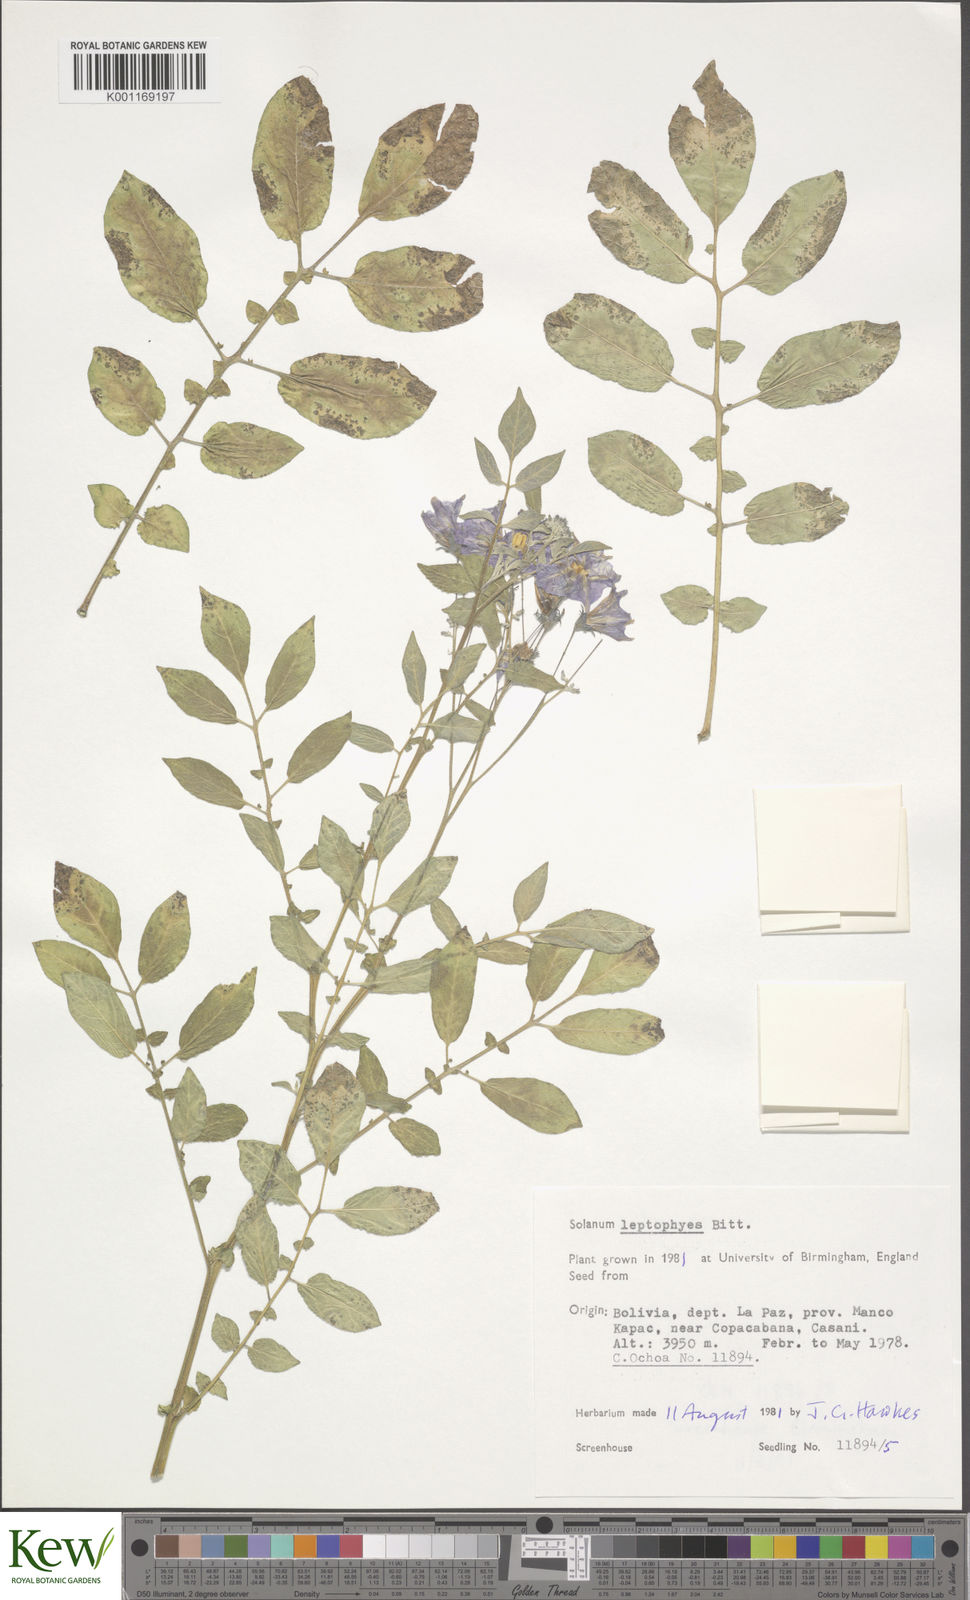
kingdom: Plantae
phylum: Tracheophyta
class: Magnoliopsida
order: Solanales
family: Solanaceae
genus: Solanum
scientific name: Solanum brevicaule
